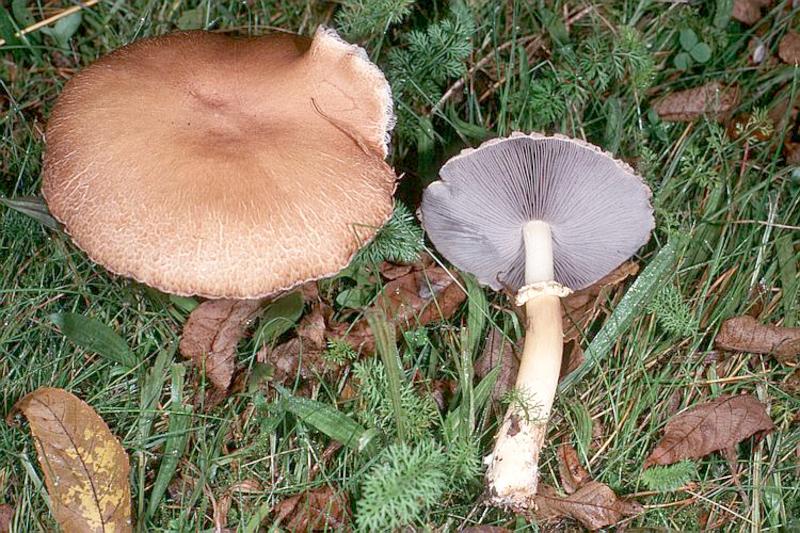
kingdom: Fungi
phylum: Basidiomycota
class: Agaricomycetes
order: Agaricales
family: Strophariaceae
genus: Stropharia
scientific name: Stropharia rugosoannulata
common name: Wine roundhead
